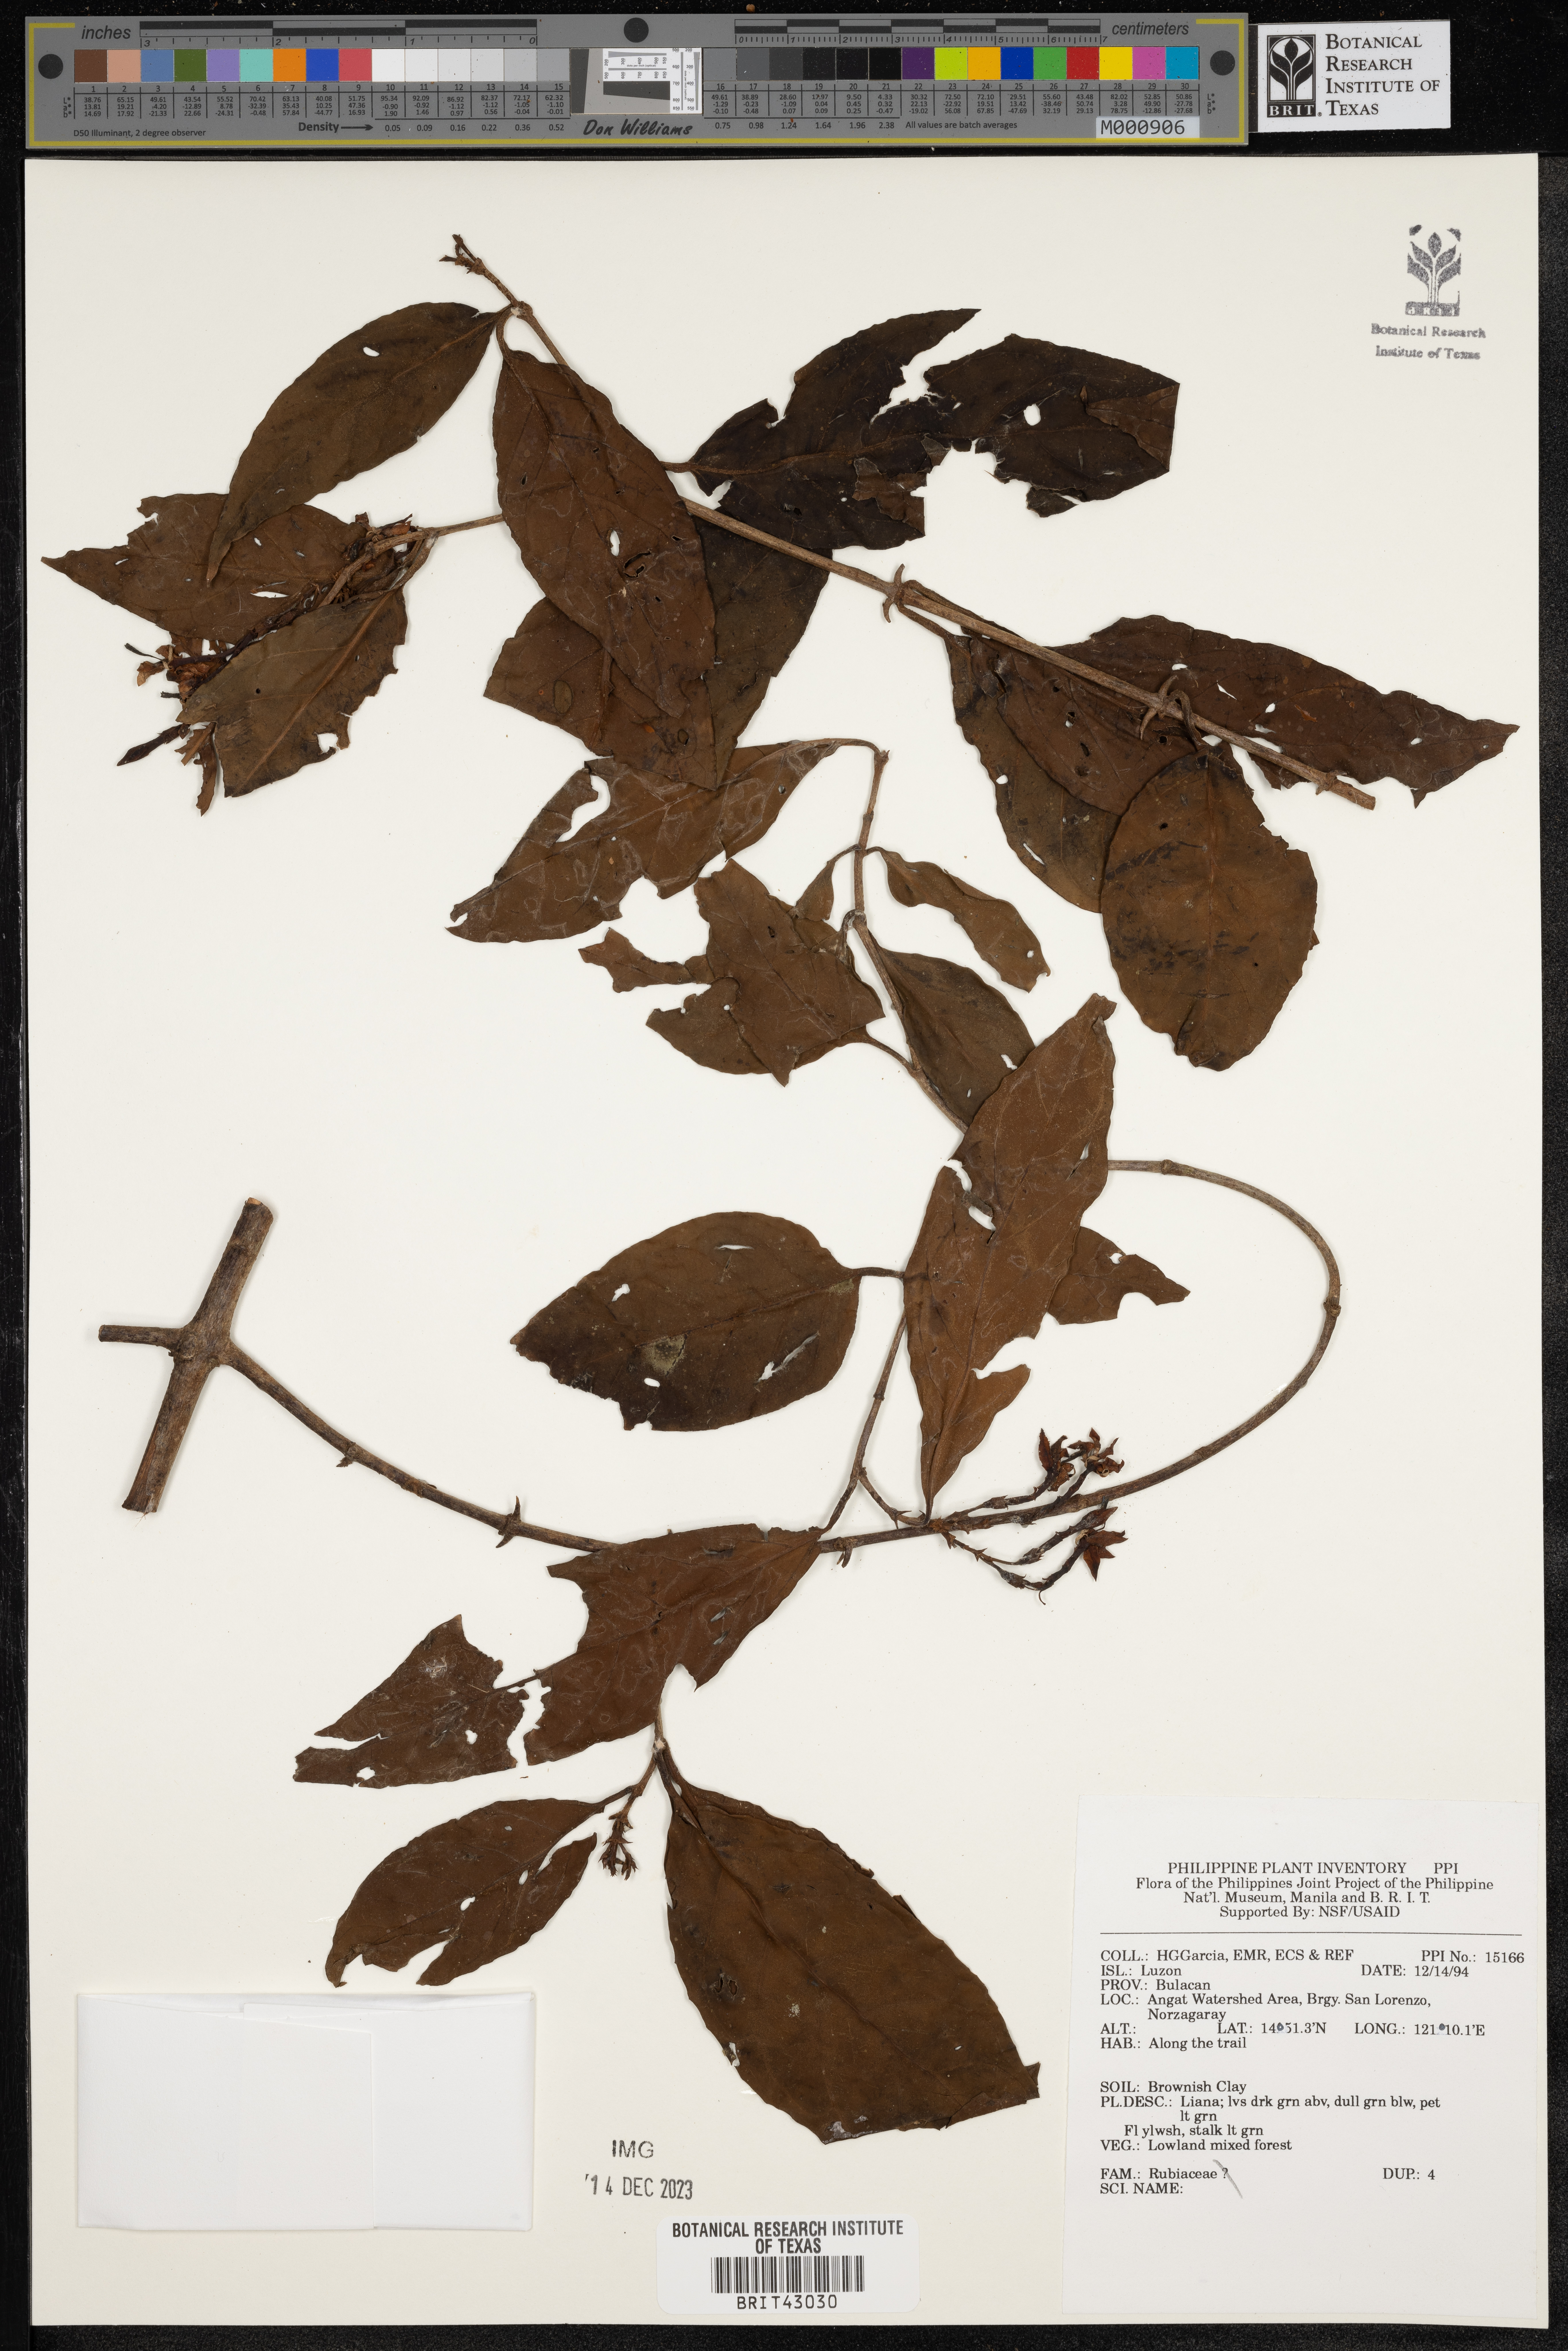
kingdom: Plantae
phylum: Tracheophyta
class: Magnoliopsida
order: Gentianales
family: Rubiaceae
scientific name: Rubiaceae
